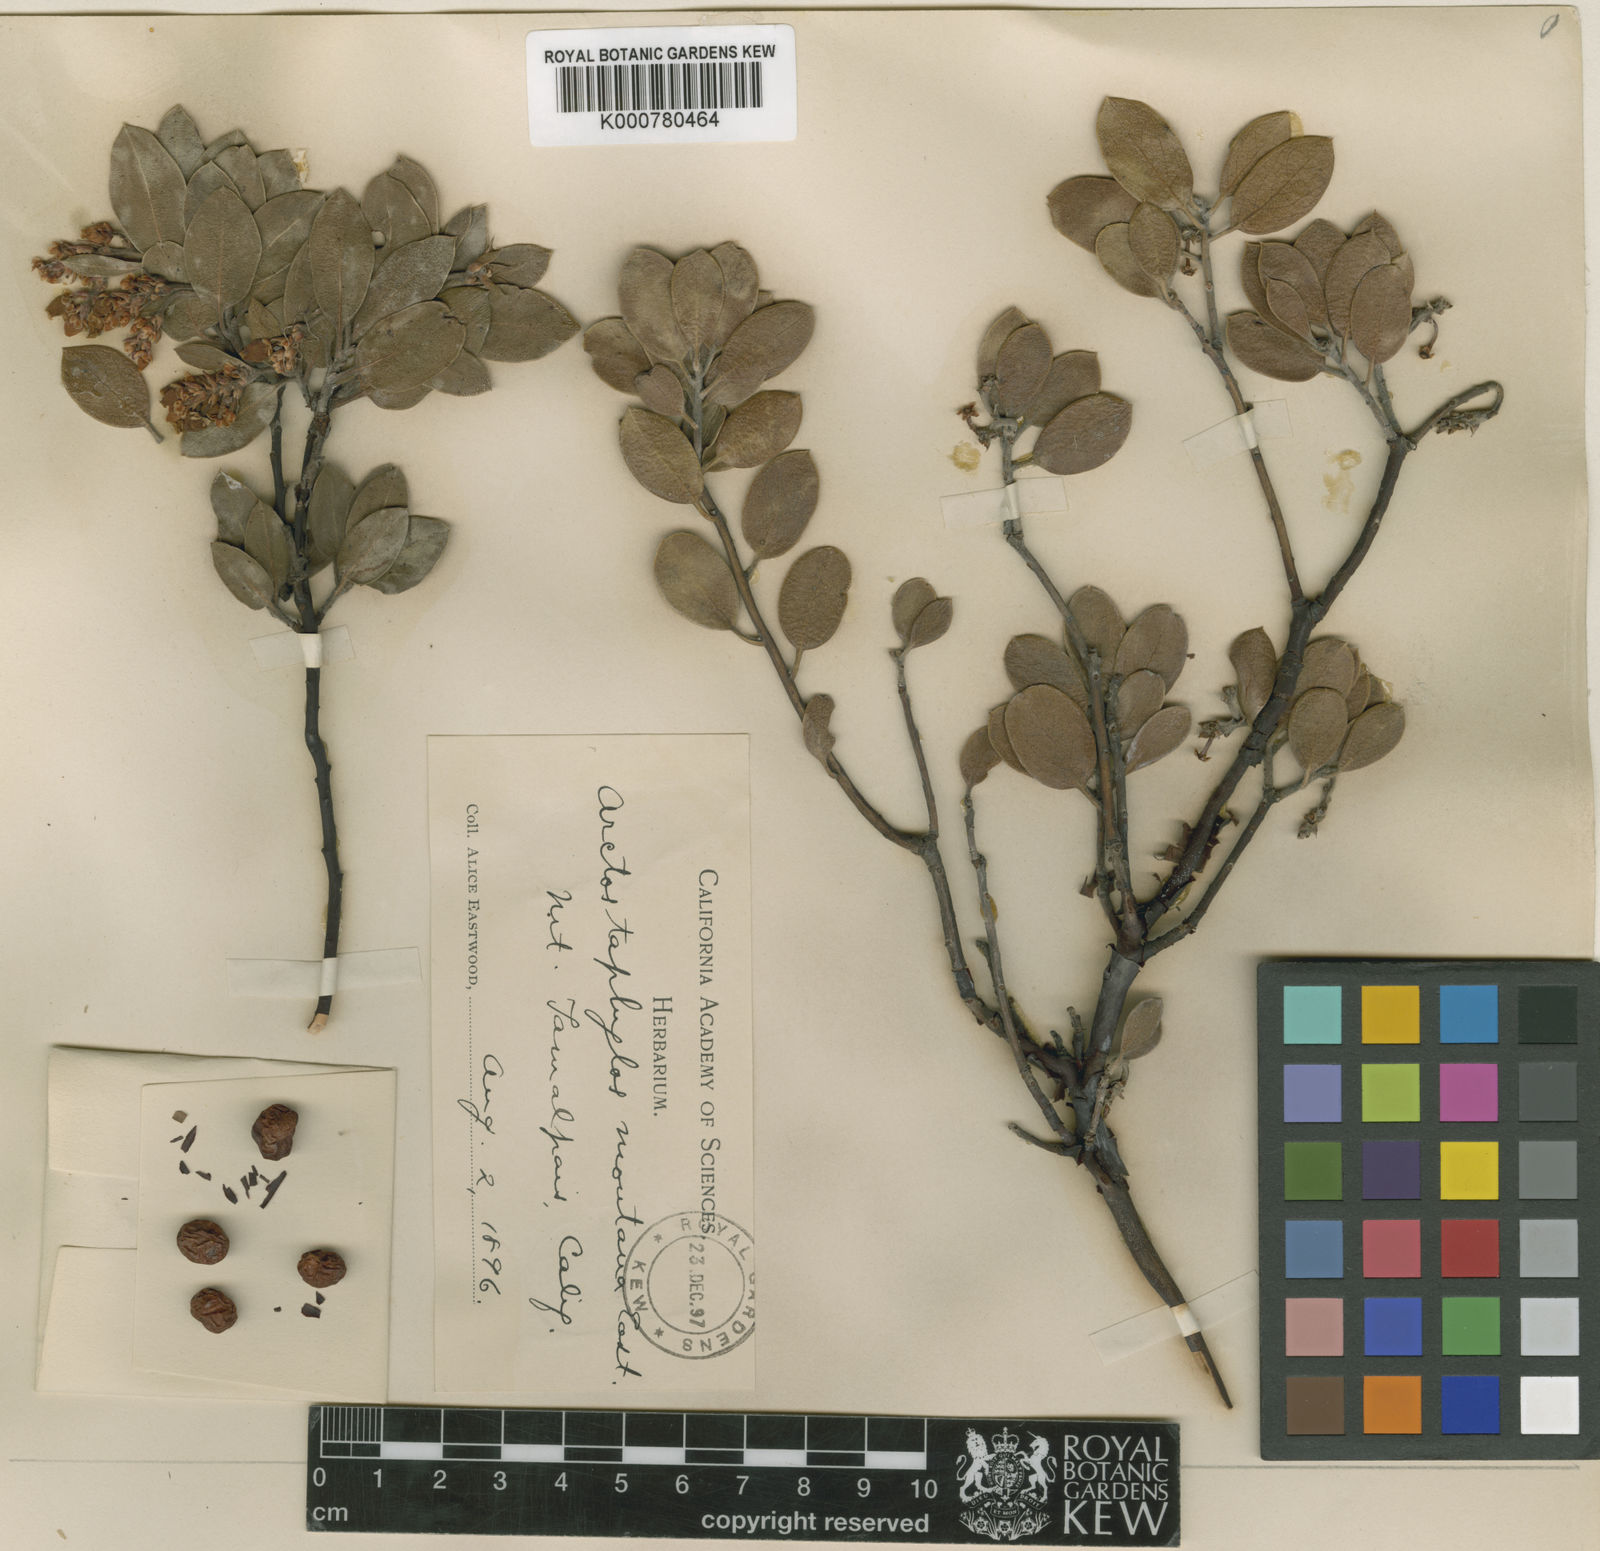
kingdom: Plantae
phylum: Tracheophyta
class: Magnoliopsida
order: Ericales
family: Ericaceae
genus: Arctostaphylos
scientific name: Arctostaphylos montana
